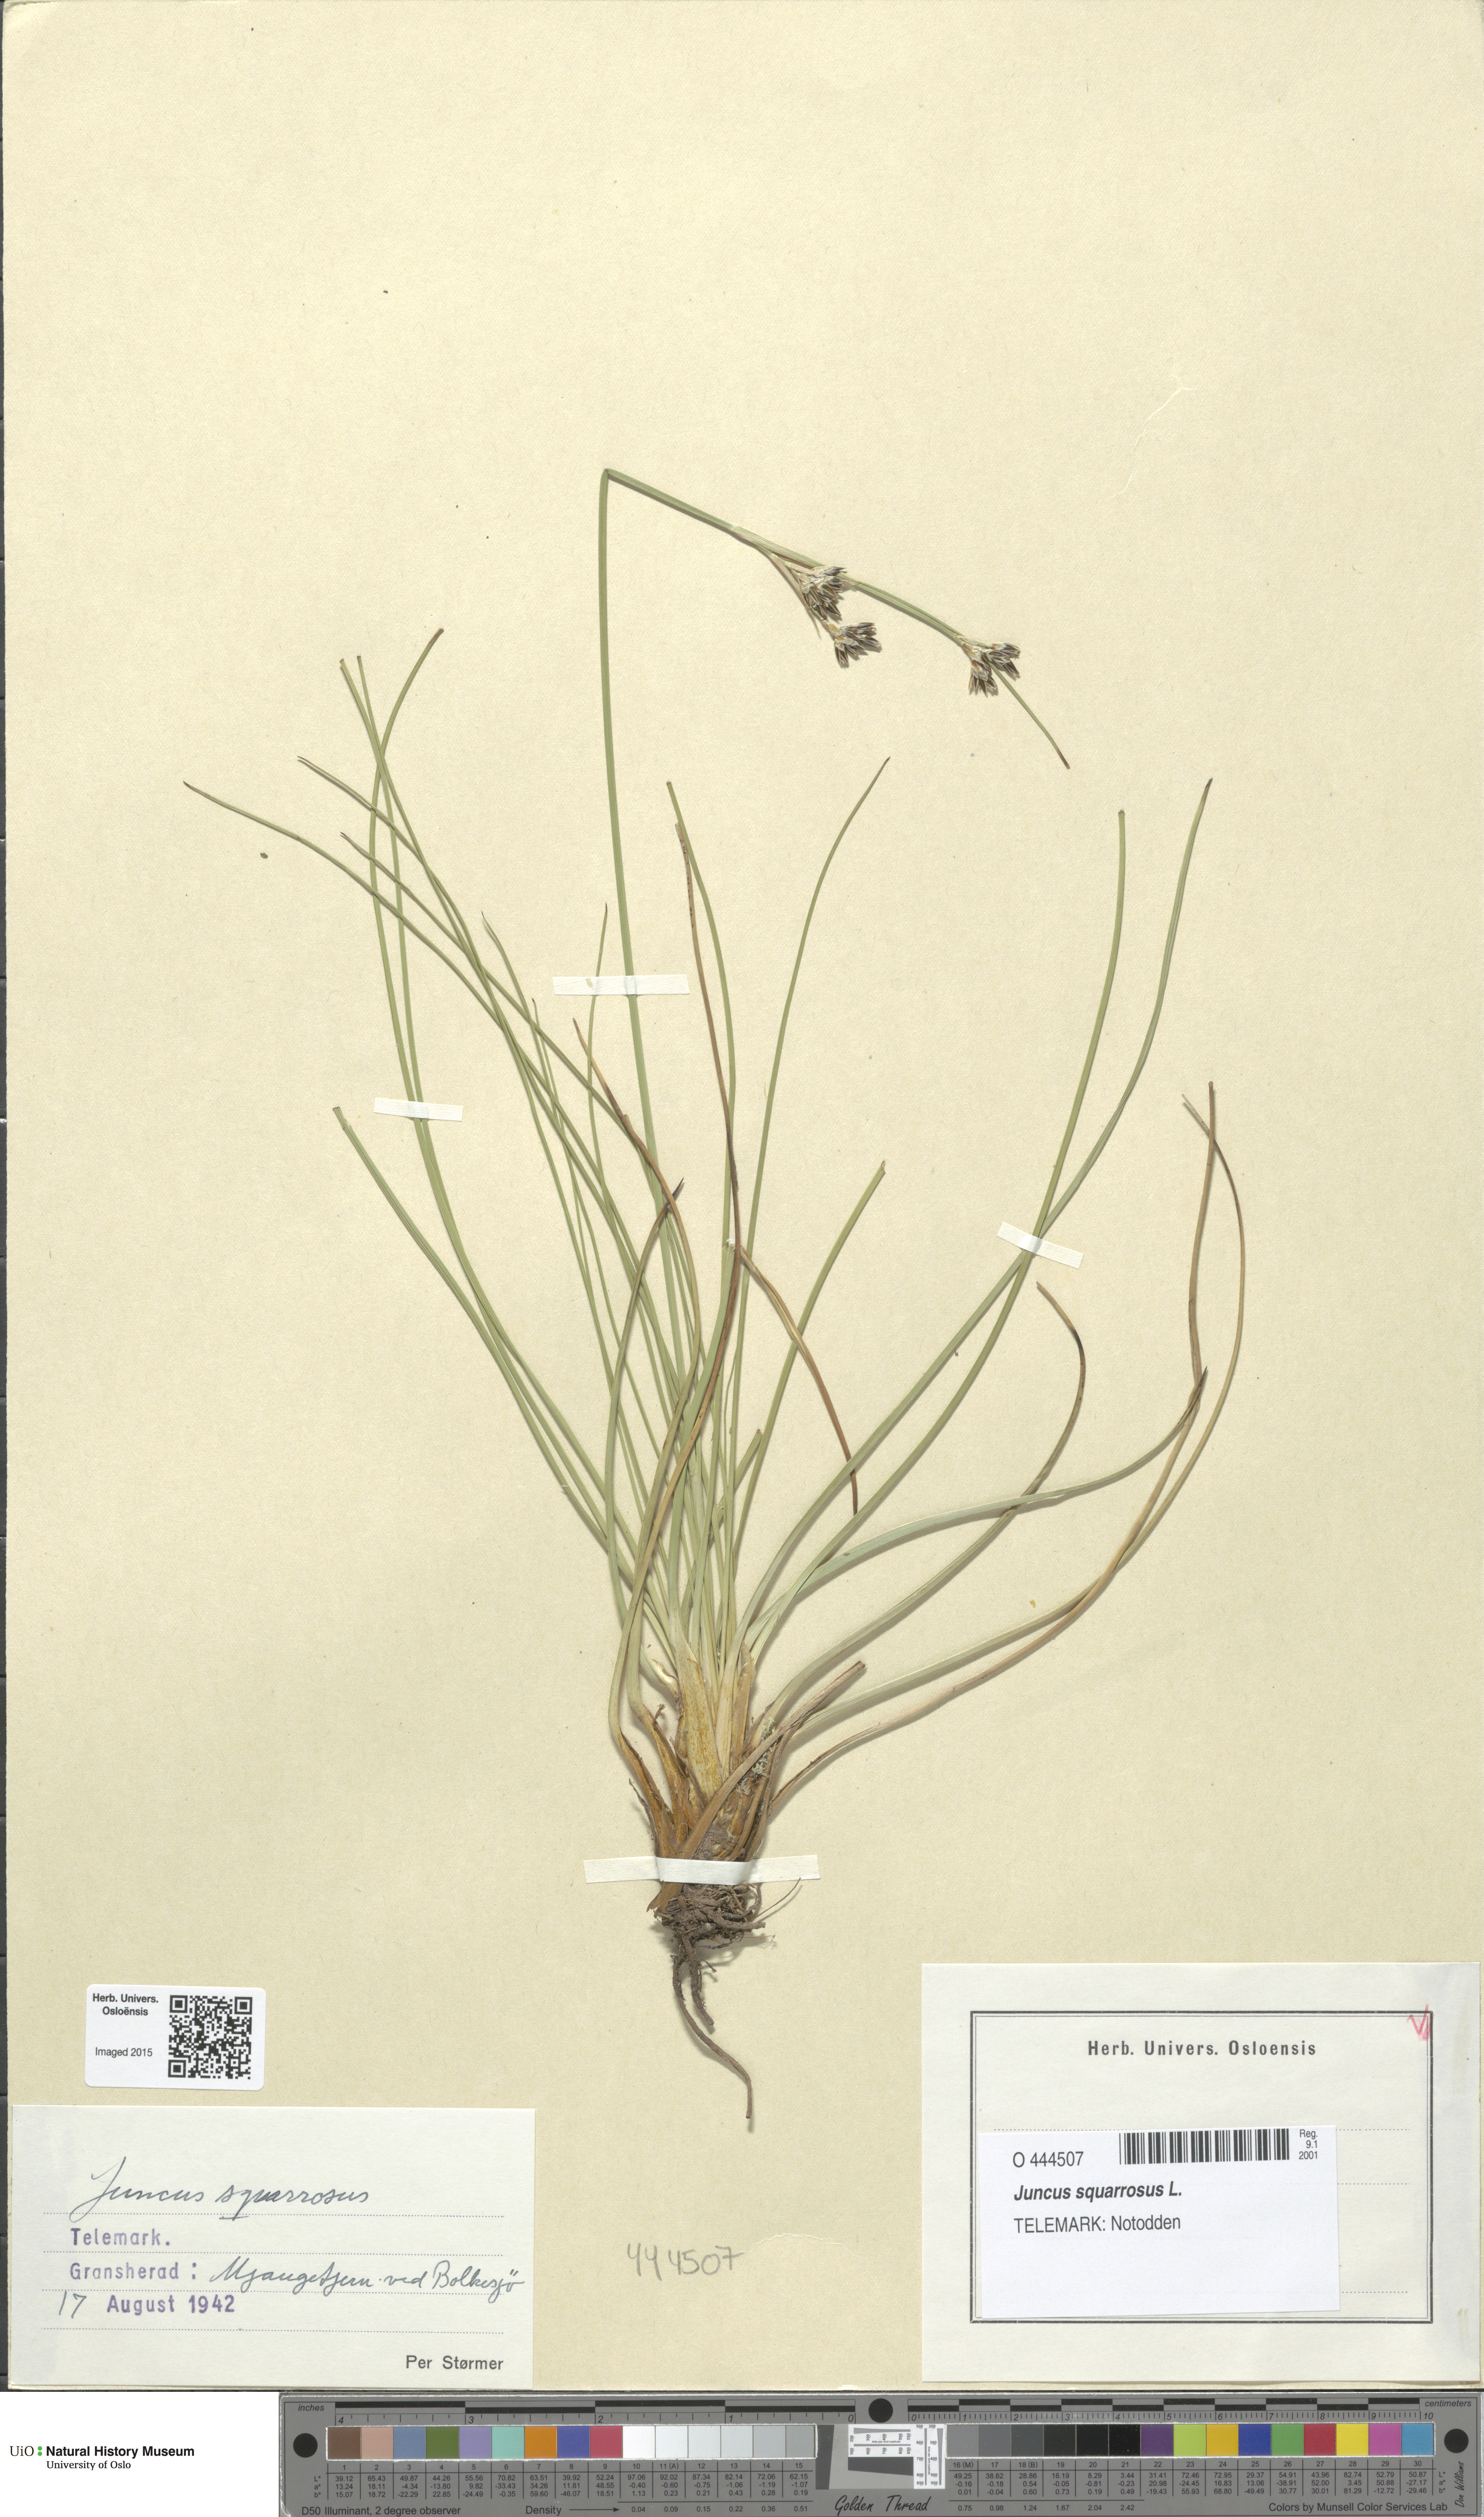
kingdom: Plantae
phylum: Tracheophyta
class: Liliopsida
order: Poales
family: Juncaceae
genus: Juncus
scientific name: Juncus squarrosus
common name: Heath rush
